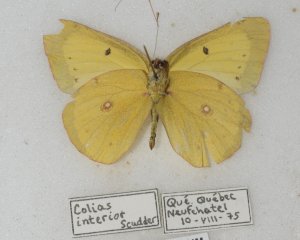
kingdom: Animalia
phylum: Arthropoda
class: Insecta
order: Lepidoptera
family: Pieridae
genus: Colias
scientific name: Colias philodice
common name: Clouded Sulphur
